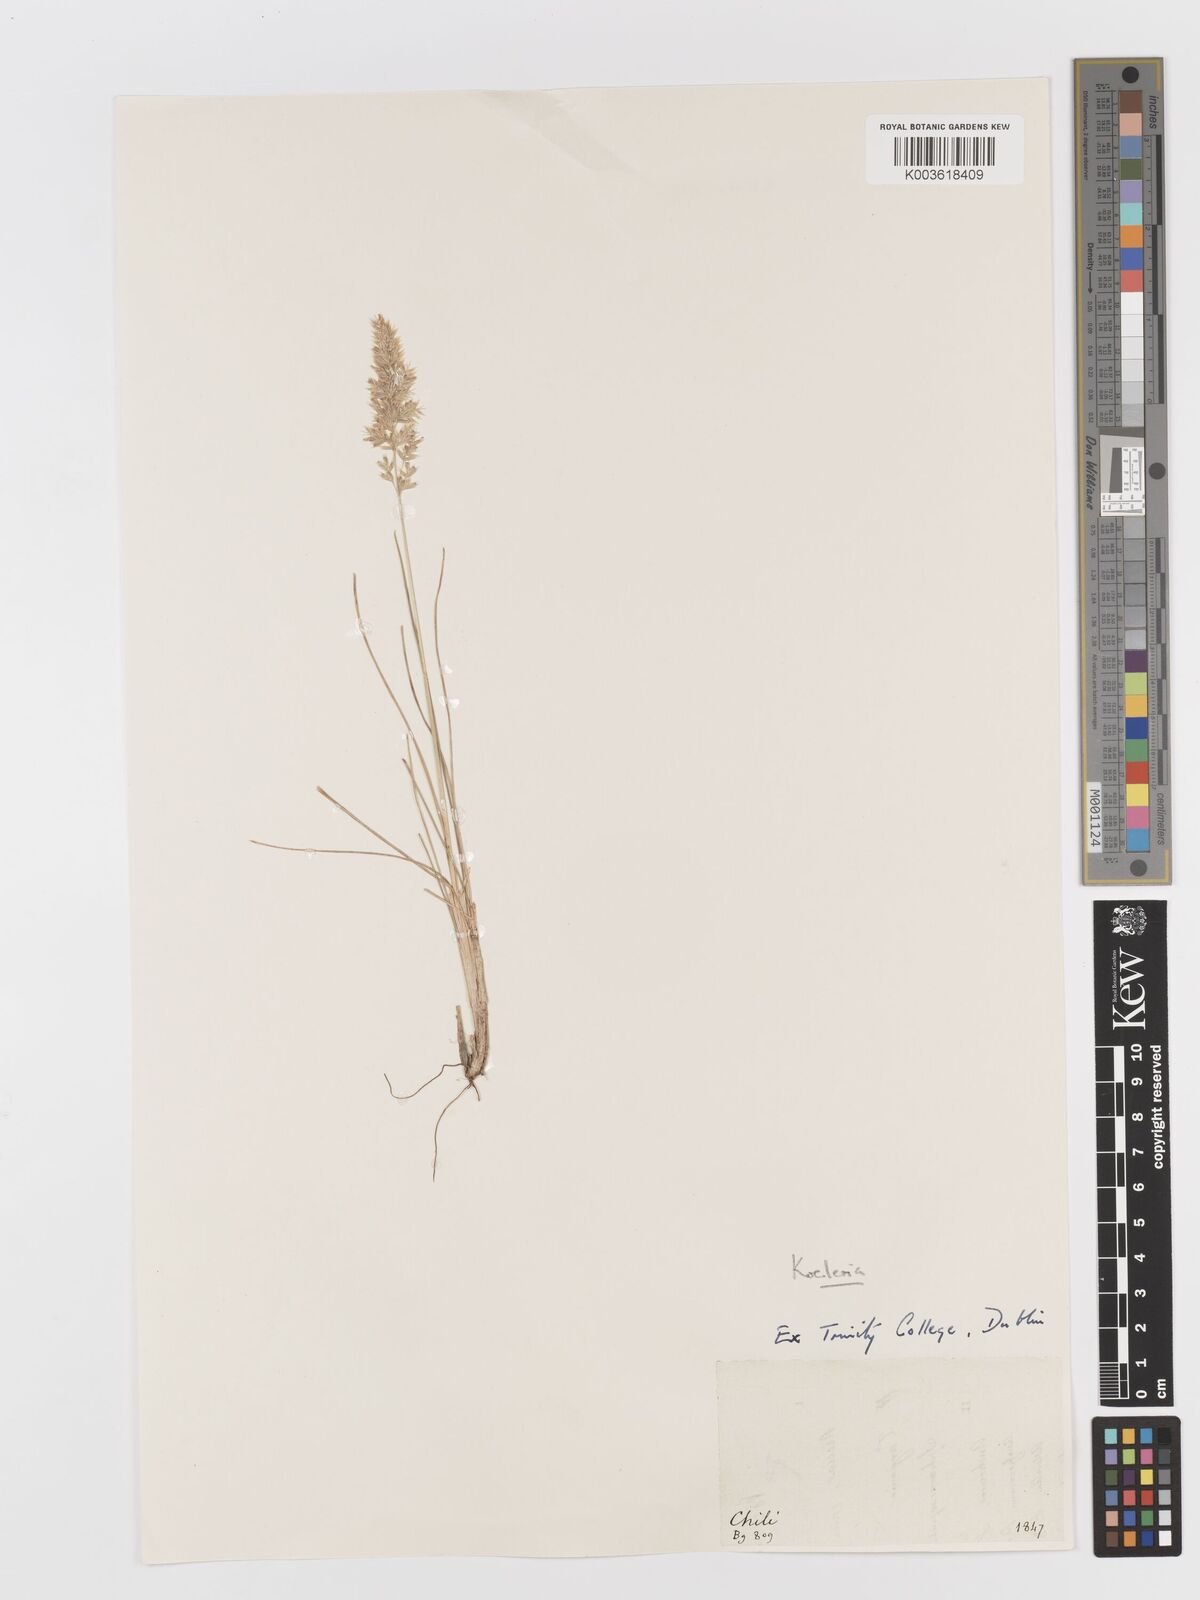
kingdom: Plantae
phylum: Tracheophyta
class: Liliopsida
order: Poales
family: Poaceae
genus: Koeleria
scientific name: Koeleria
